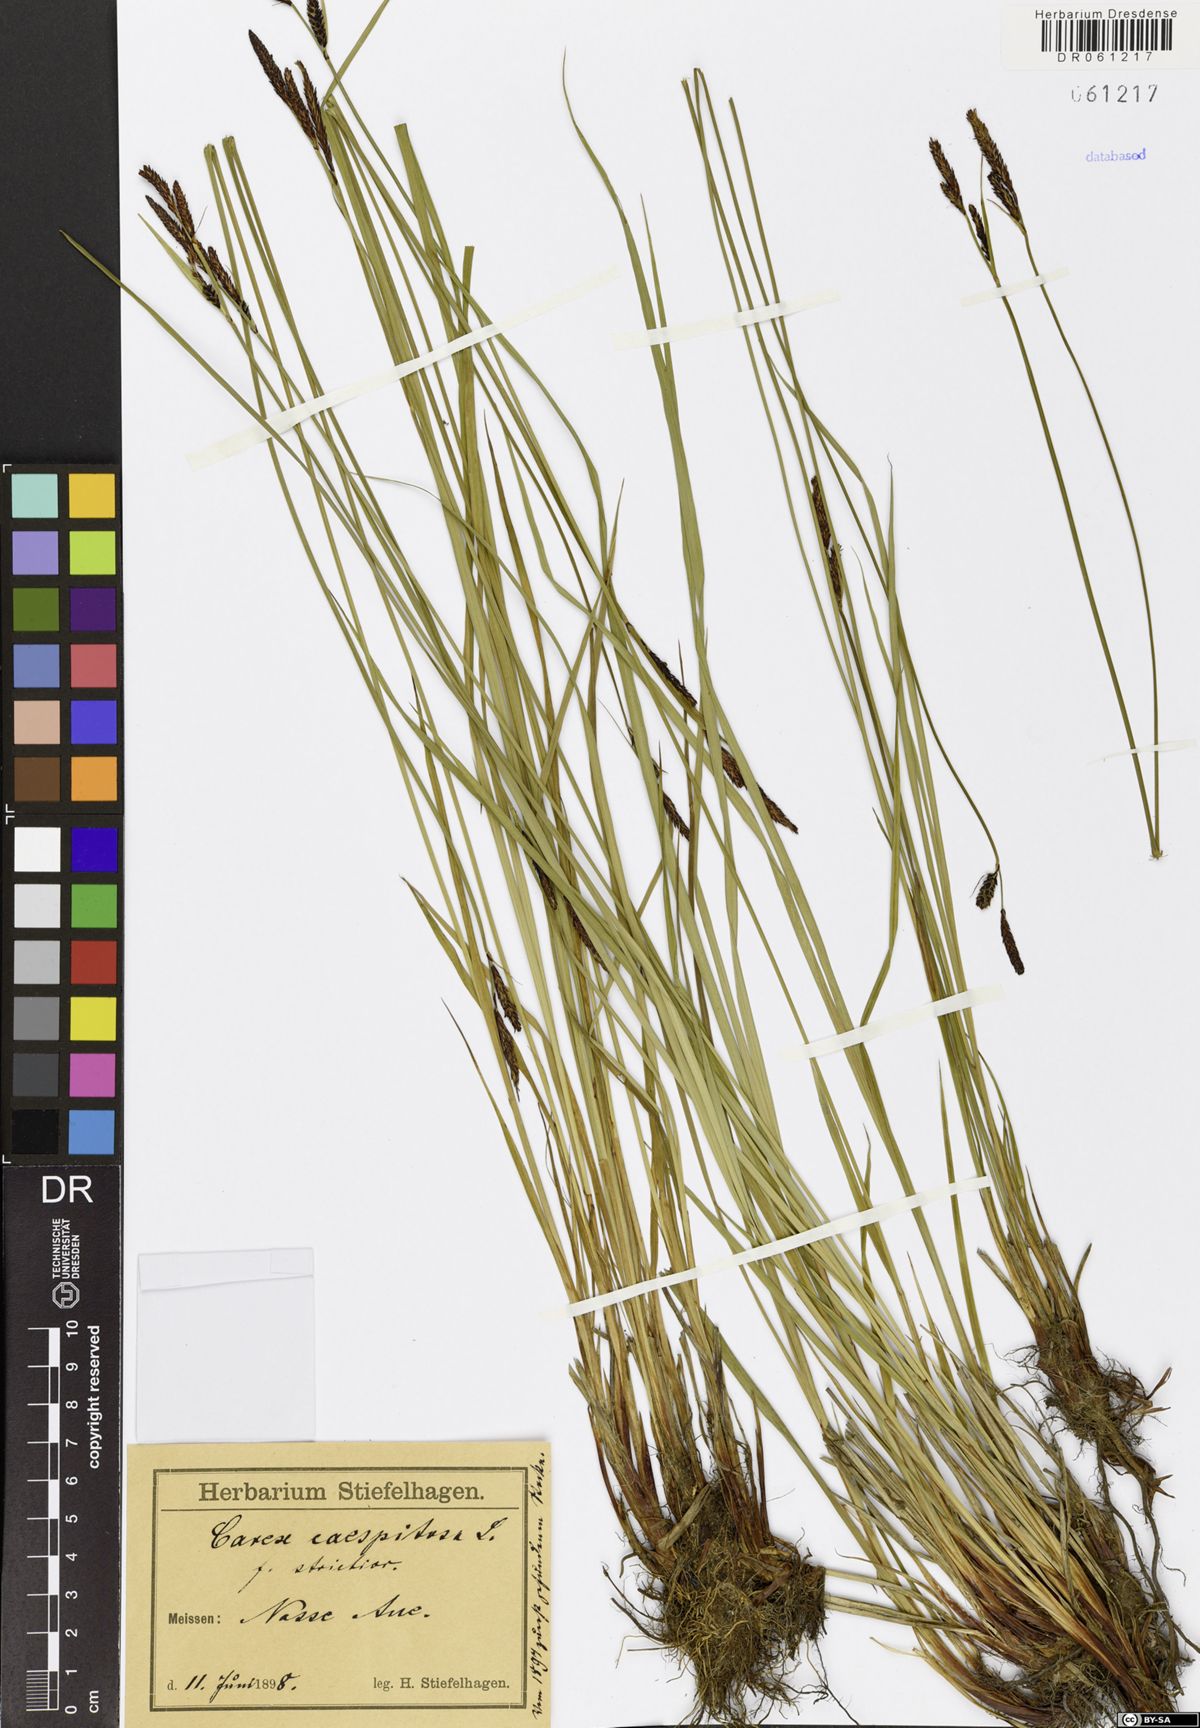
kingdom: Plantae
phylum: Tracheophyta
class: Liliopsida
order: Poales
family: Cyperaceae
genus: Carex
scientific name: Carex cespitosa
